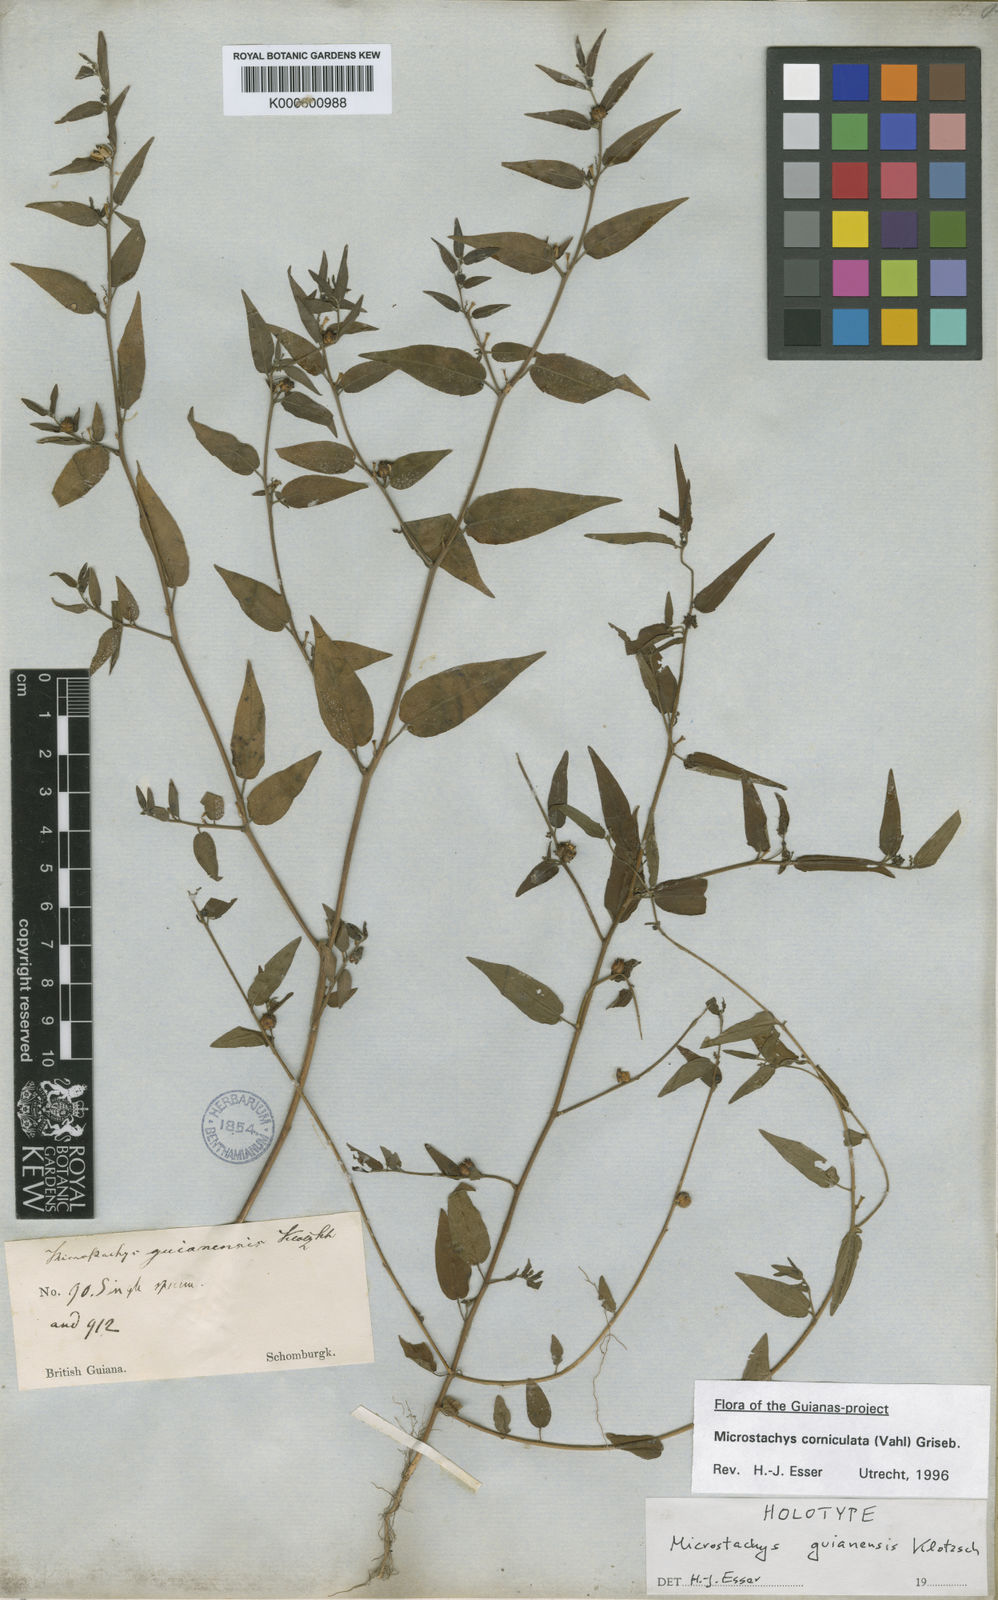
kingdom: Plantae
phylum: Tracheophyta
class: Magnoliopsida
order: Malpighiales
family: Euphorbiaceae
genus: Sebastiania
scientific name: Sebastiania
